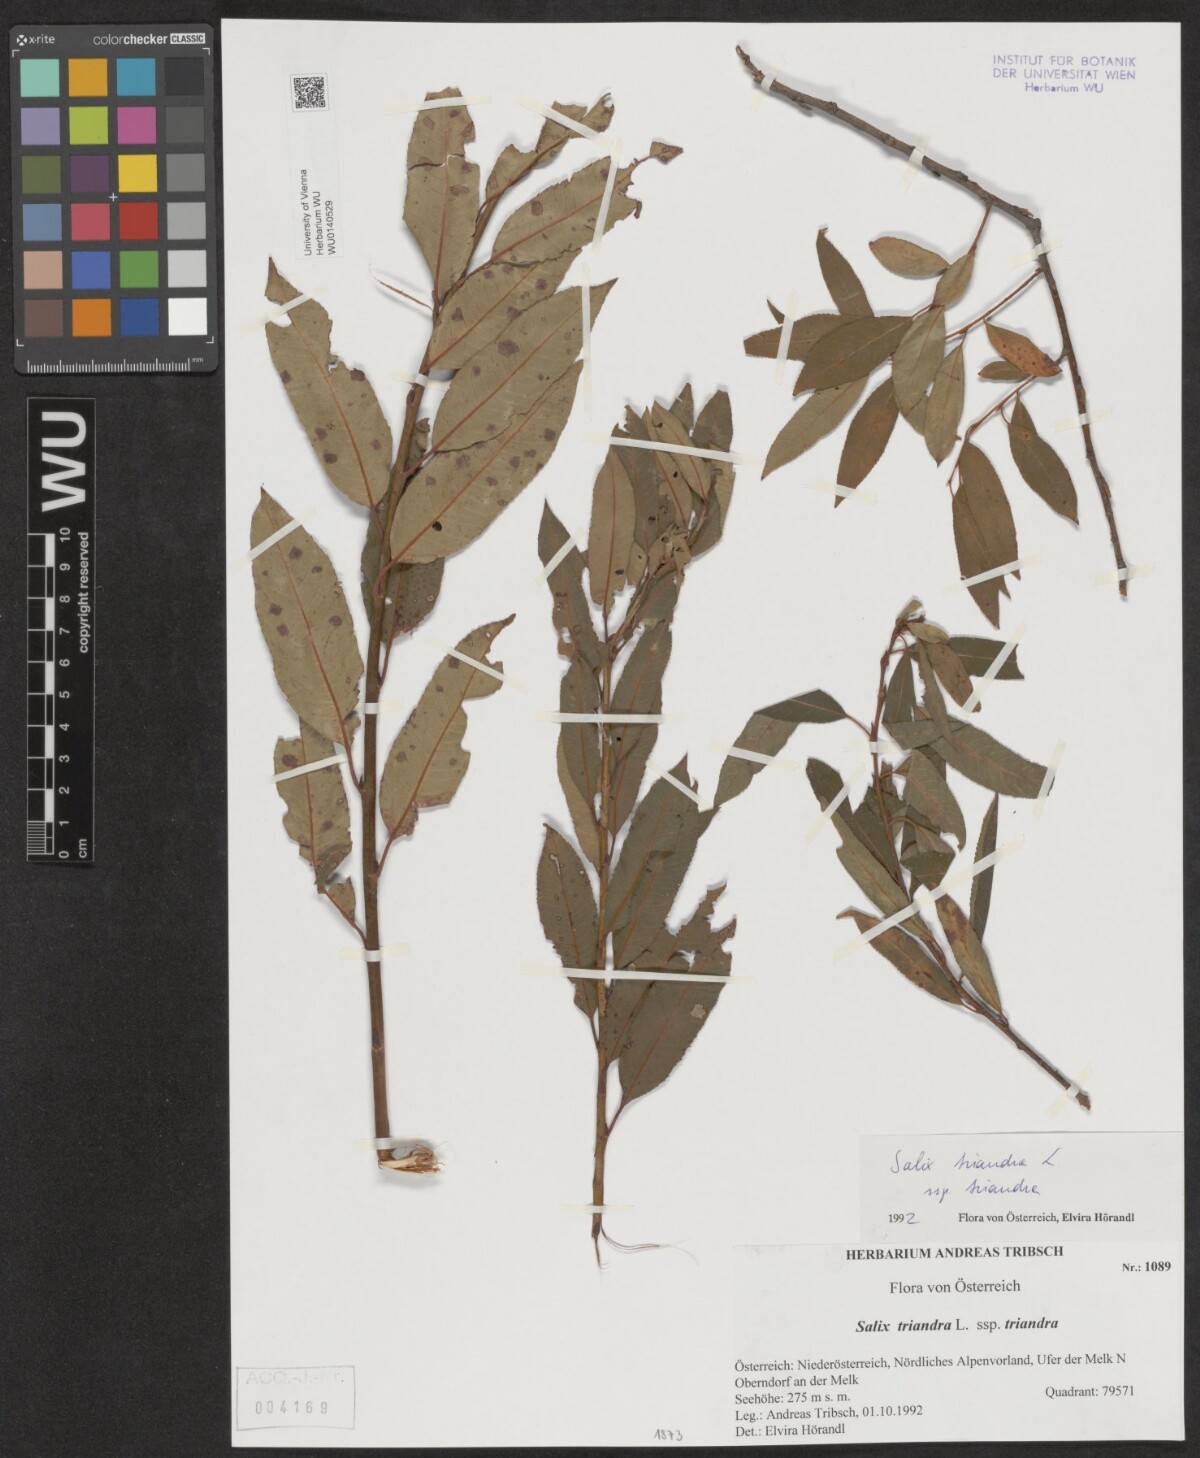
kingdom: Plantae
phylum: Tracheophyta
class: Magnoliopsida
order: Malpighiales
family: Salicaceae
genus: Salix
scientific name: Salix triandra
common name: Almond willow
